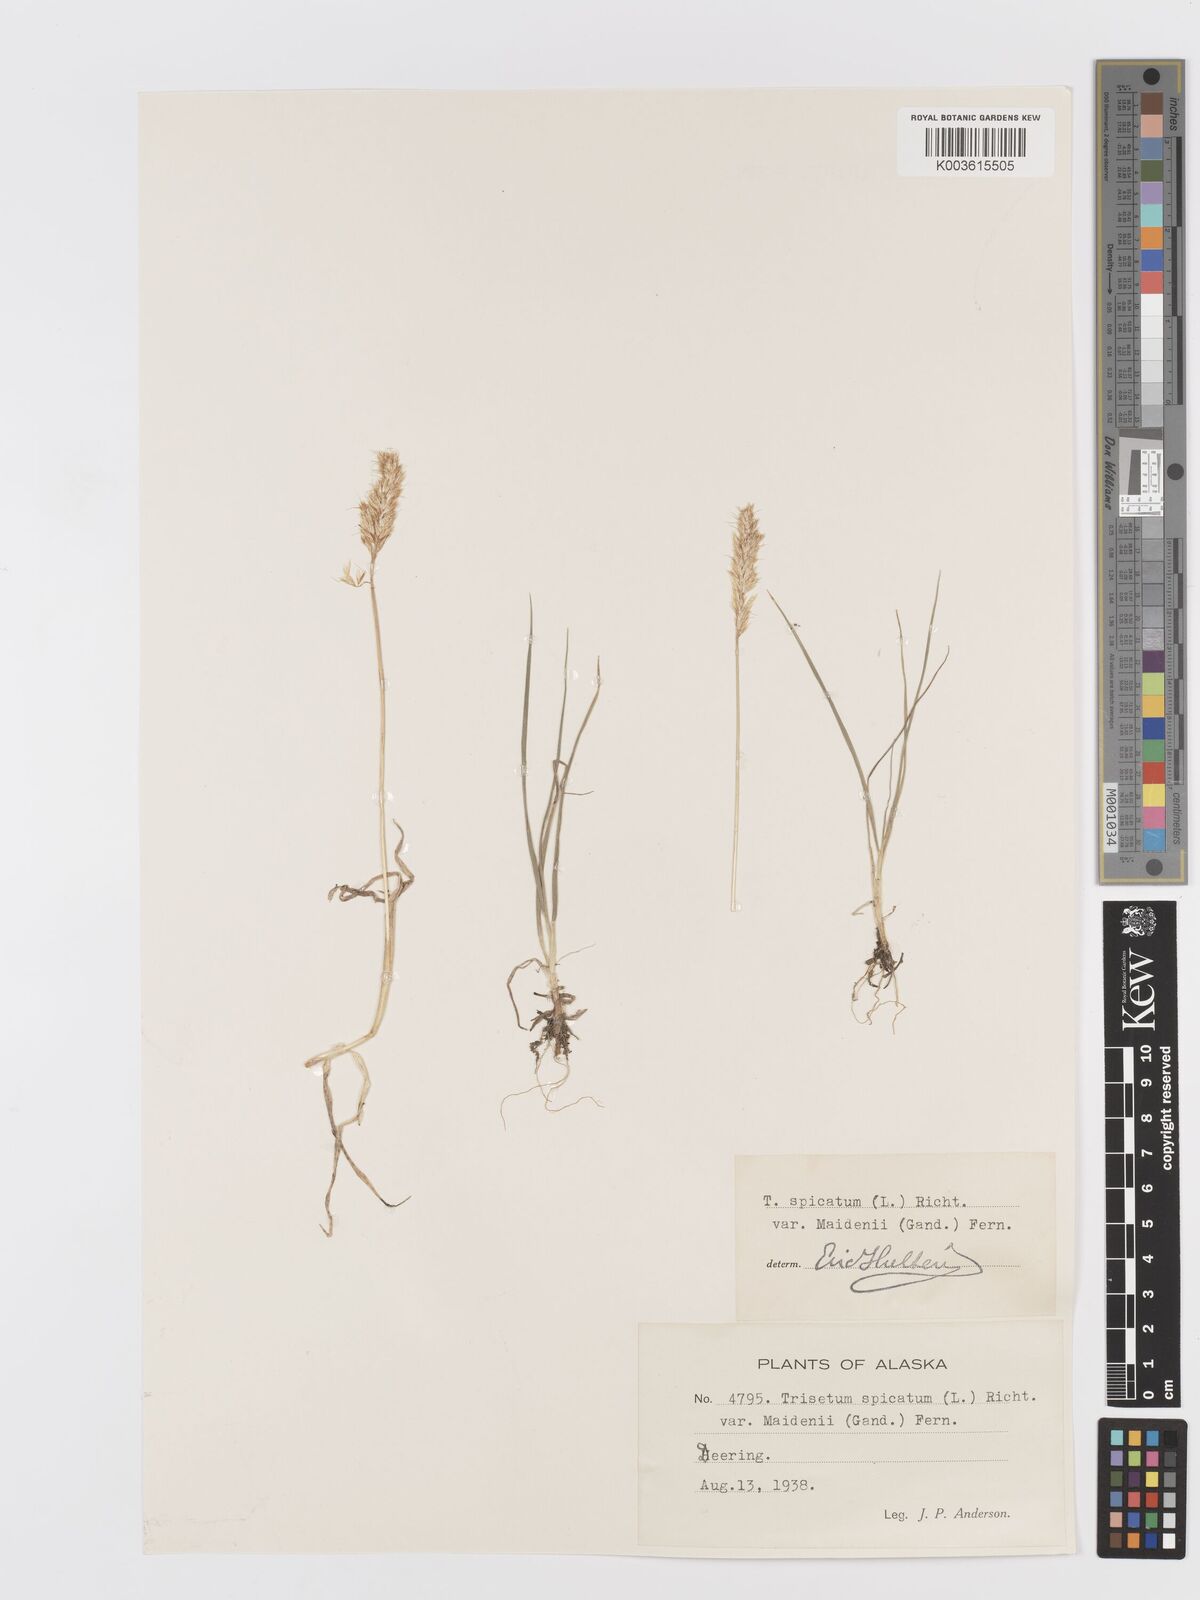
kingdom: Plantae
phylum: Tracheophyta
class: Liliopsida
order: Poales
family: Poaceae
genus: Koeleria
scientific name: Koeleria spicata
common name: Mountain trisetum
